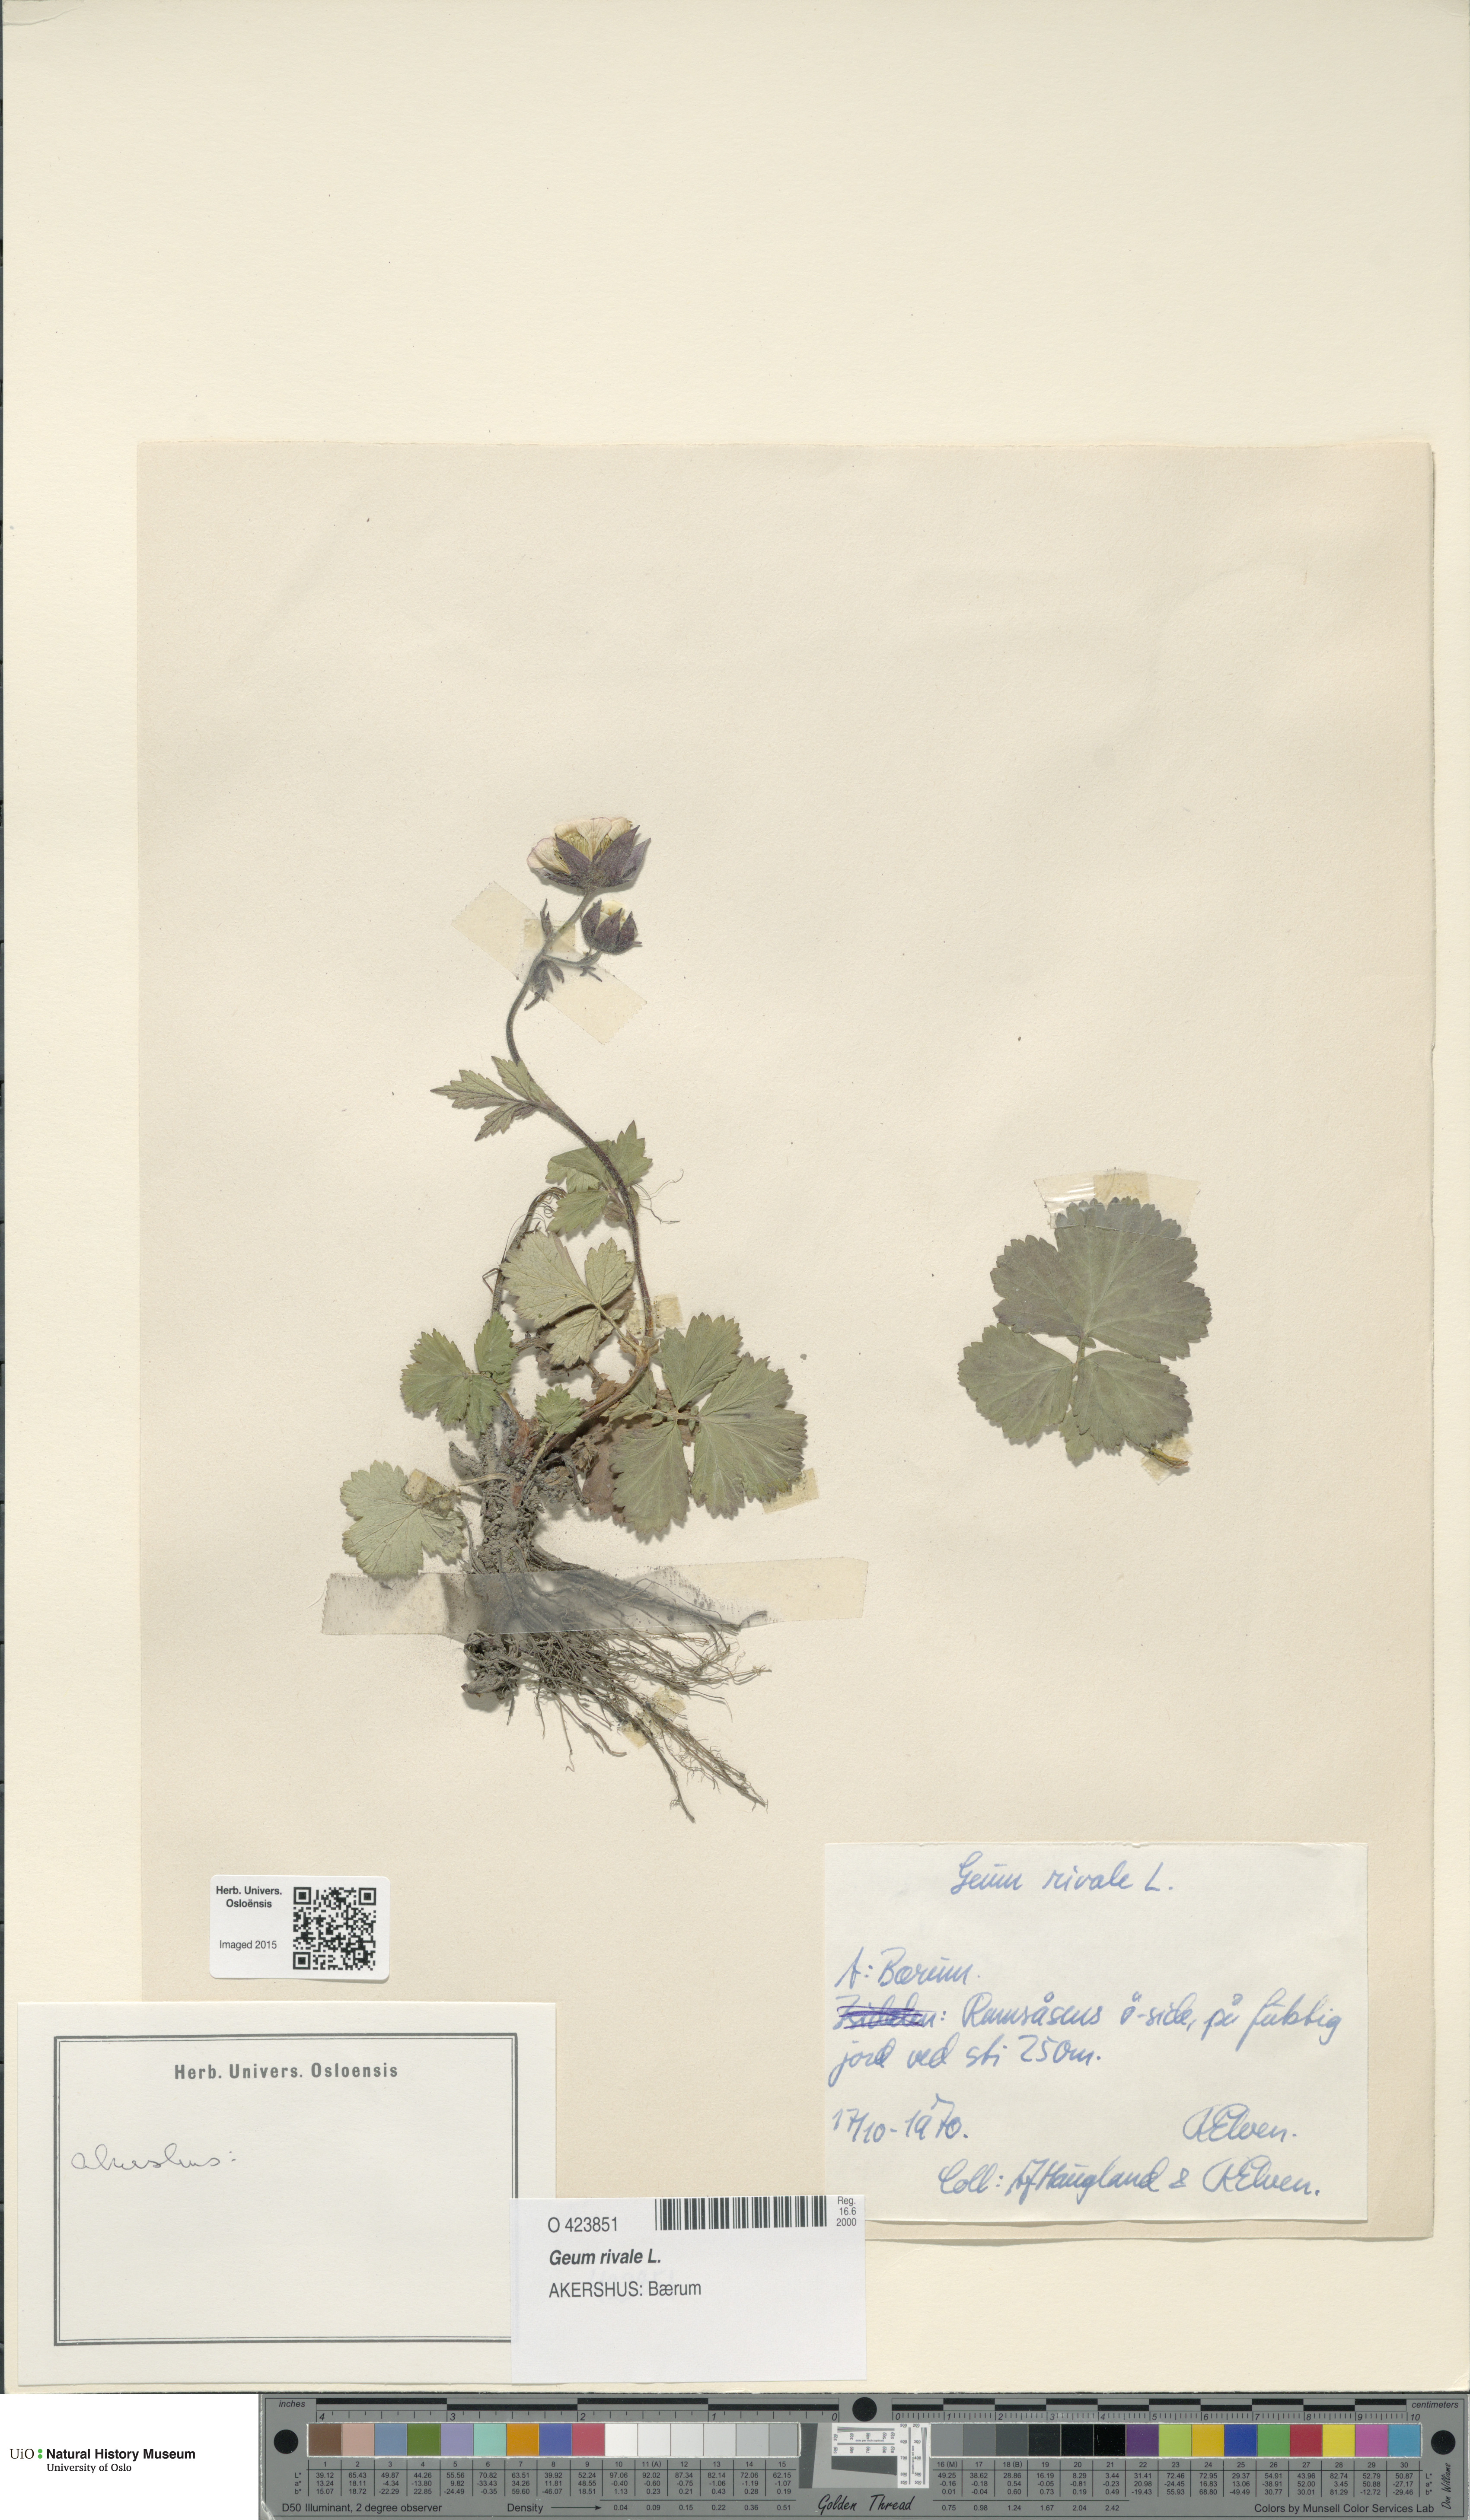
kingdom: Plantae
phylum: Tracheophyta
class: Magnoliopsida
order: Rosales
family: Rosaceae
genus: Geum
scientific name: Geum rivale
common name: Water avens
